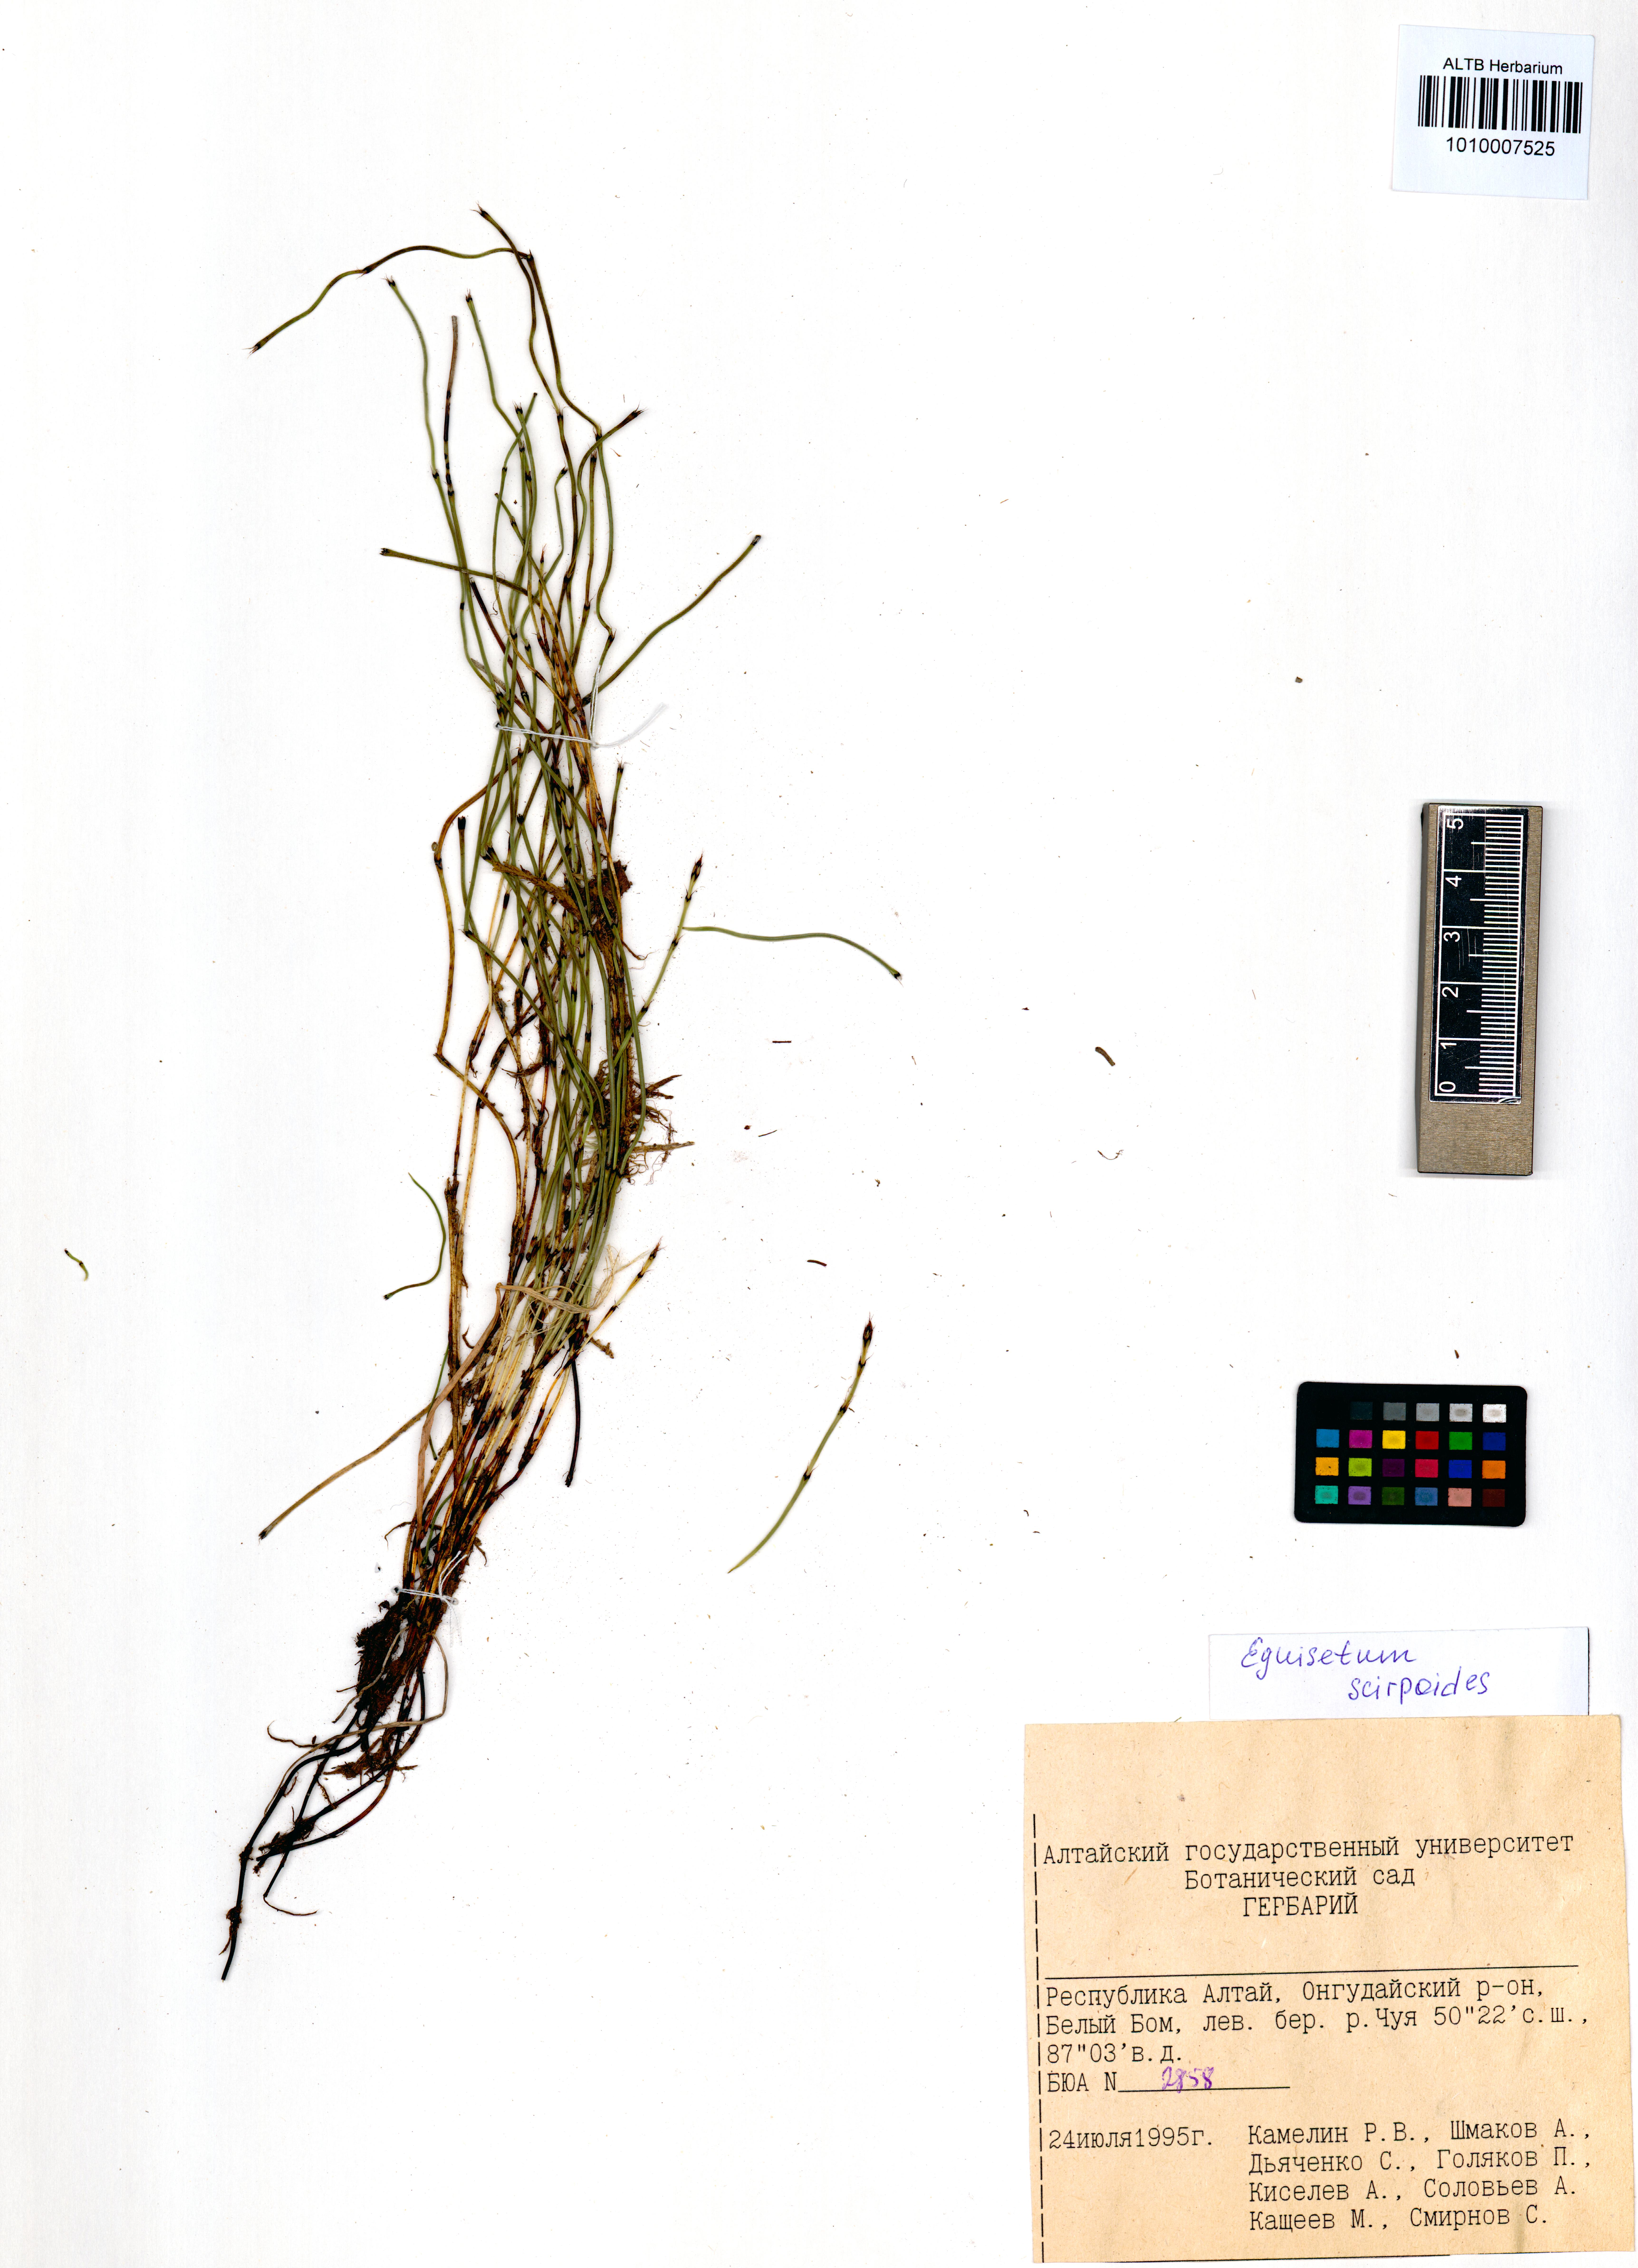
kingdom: Plantae
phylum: Tracheophyta
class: Polypodiopsida
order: Equisetales
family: Equisetaceae
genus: Equisetum
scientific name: Equisetum scirpoides
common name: Delicate horsetail
